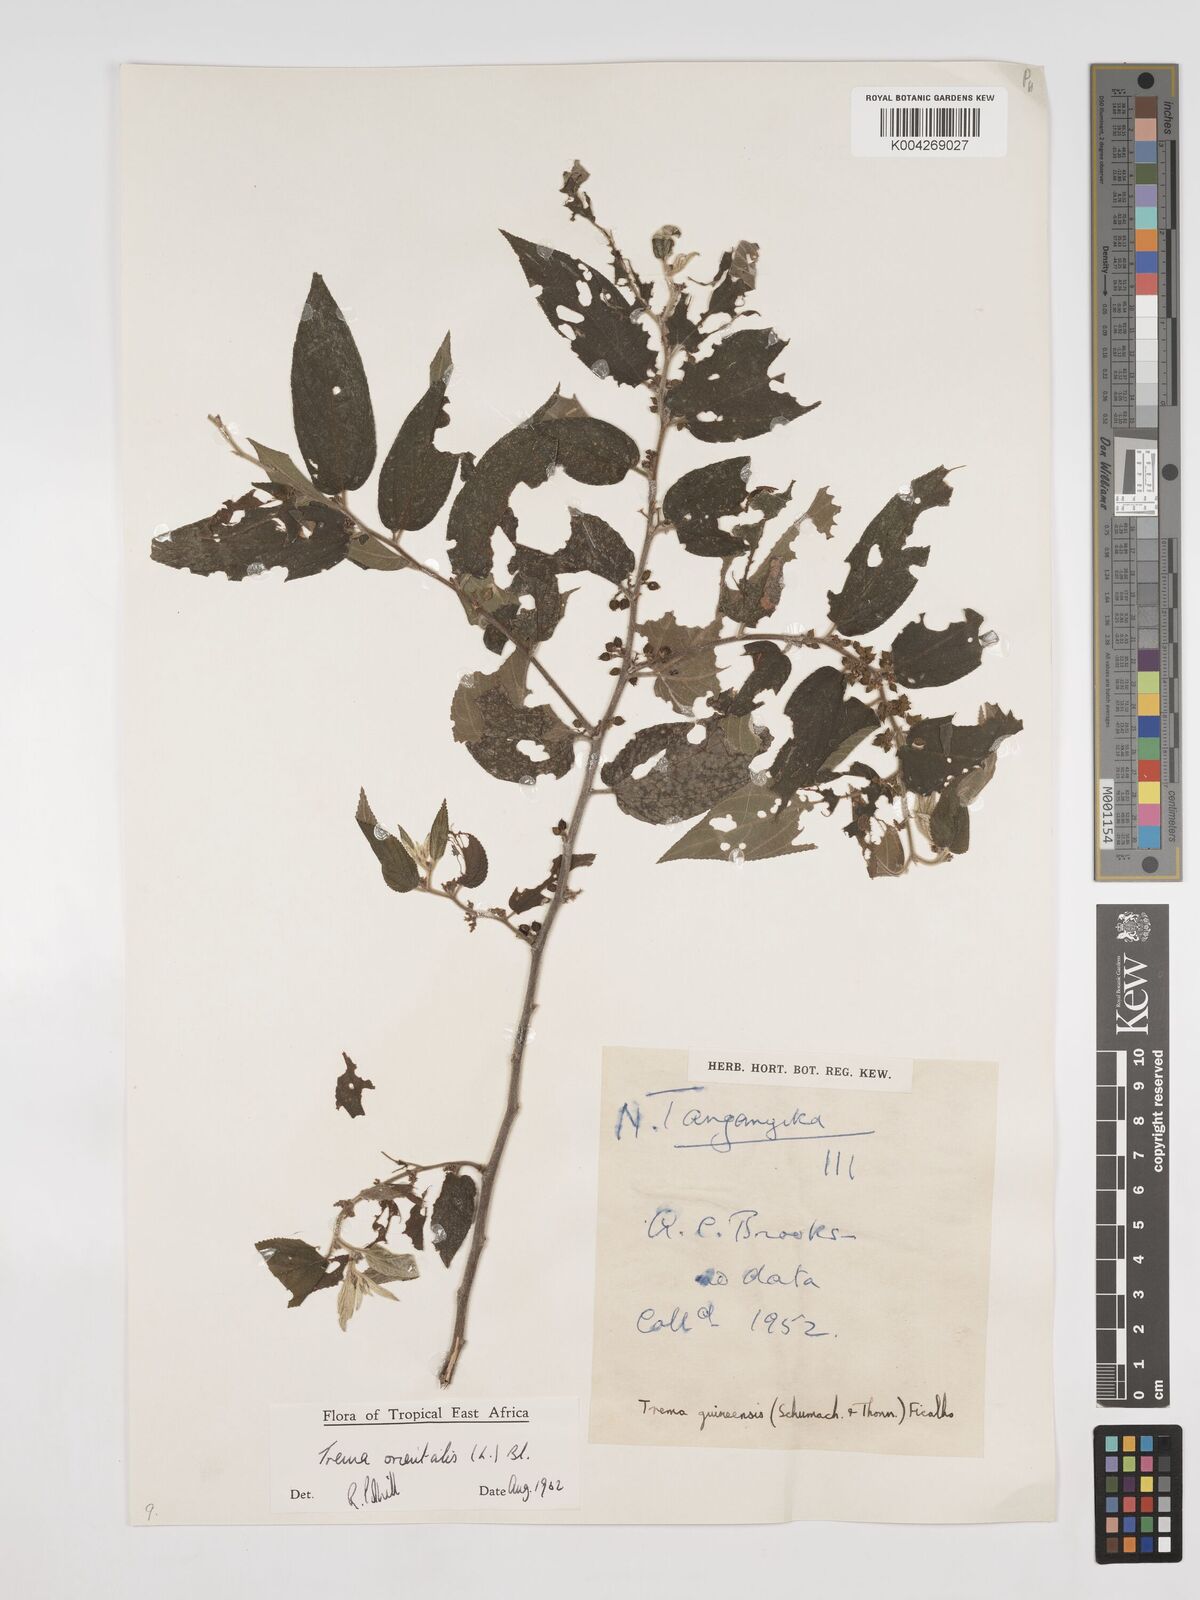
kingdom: Plantae
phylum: Tracheophyta
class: Magnoliopsida
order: Rosales
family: Cannabaceae
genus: Trema
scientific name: Trema orientale
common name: Indian charcoal tree
